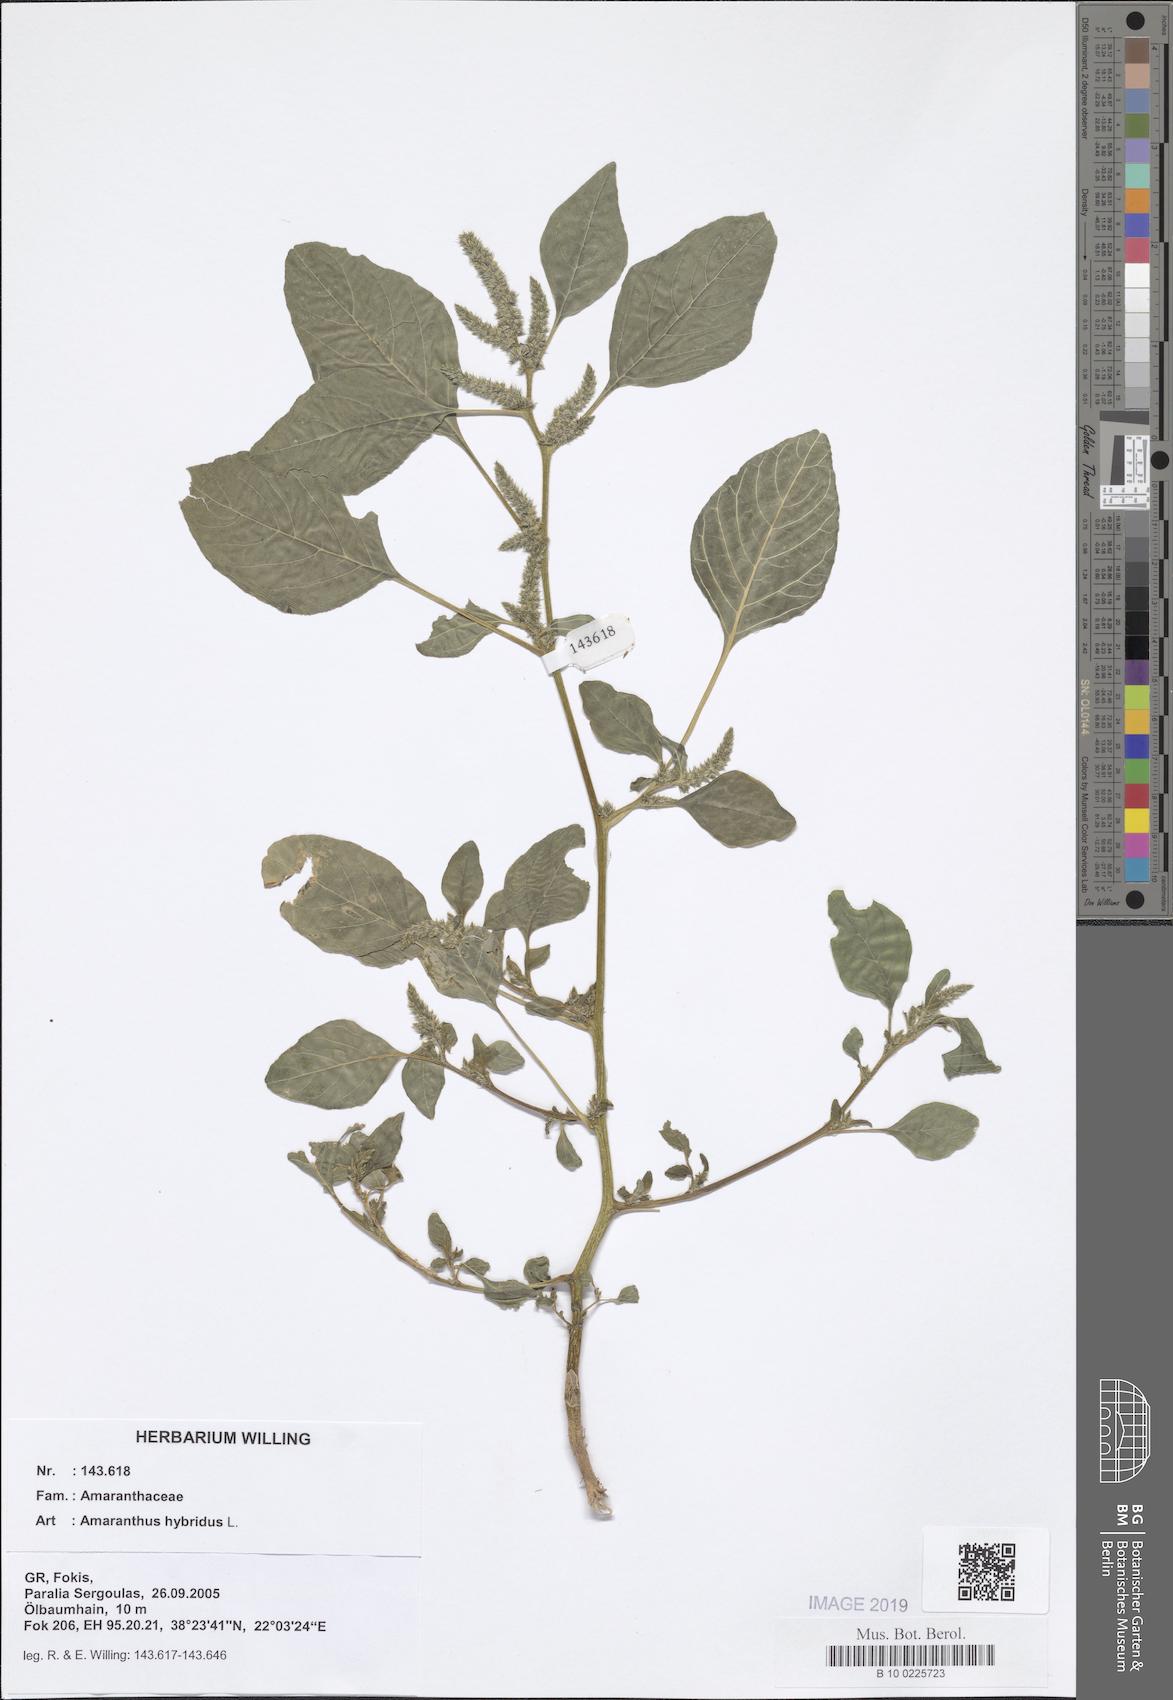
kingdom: Plantae
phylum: Tracheophyta
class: Magnoliopsida
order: Caryophyllales
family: Amaranthaceae
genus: Amaranthus
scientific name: Amaranthus hybridus
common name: Green amaranth
